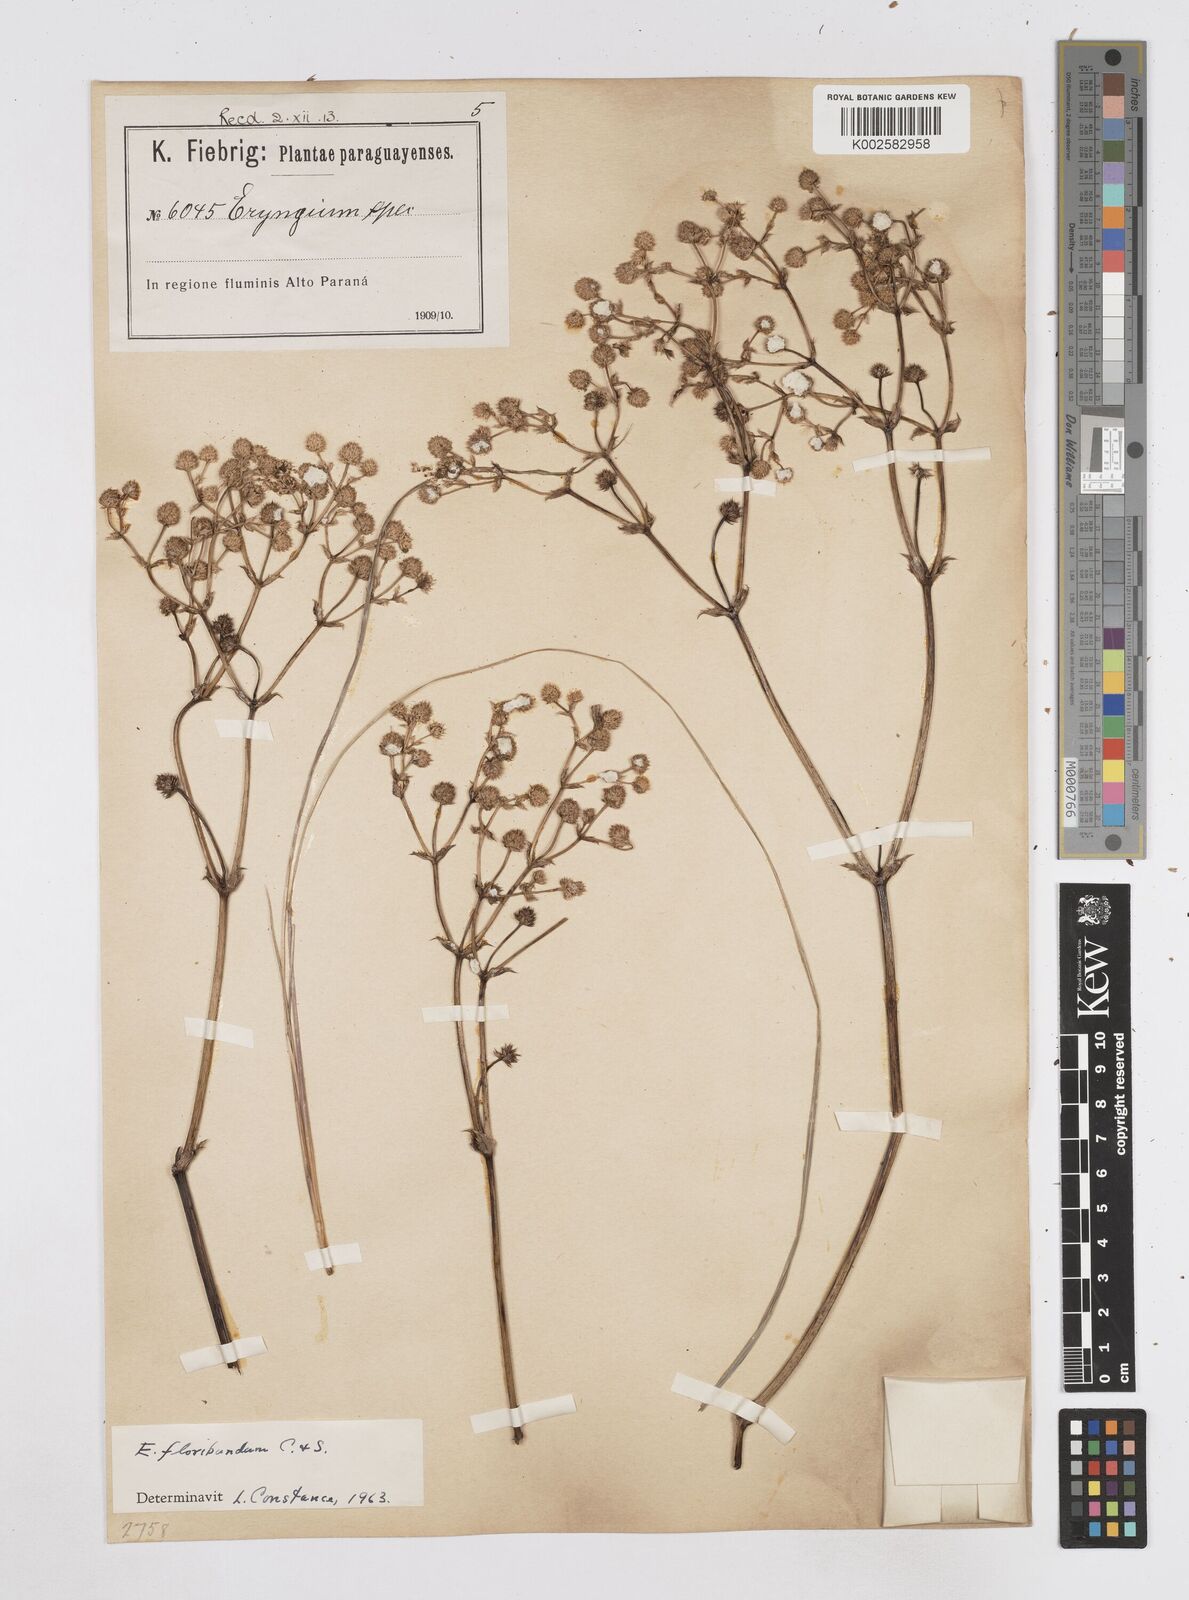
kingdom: Plantae
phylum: Tracheophyta
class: Magnoliopsida
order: Apiales
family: Apiaceae
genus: Eryngium
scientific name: Eryngium floribundum
